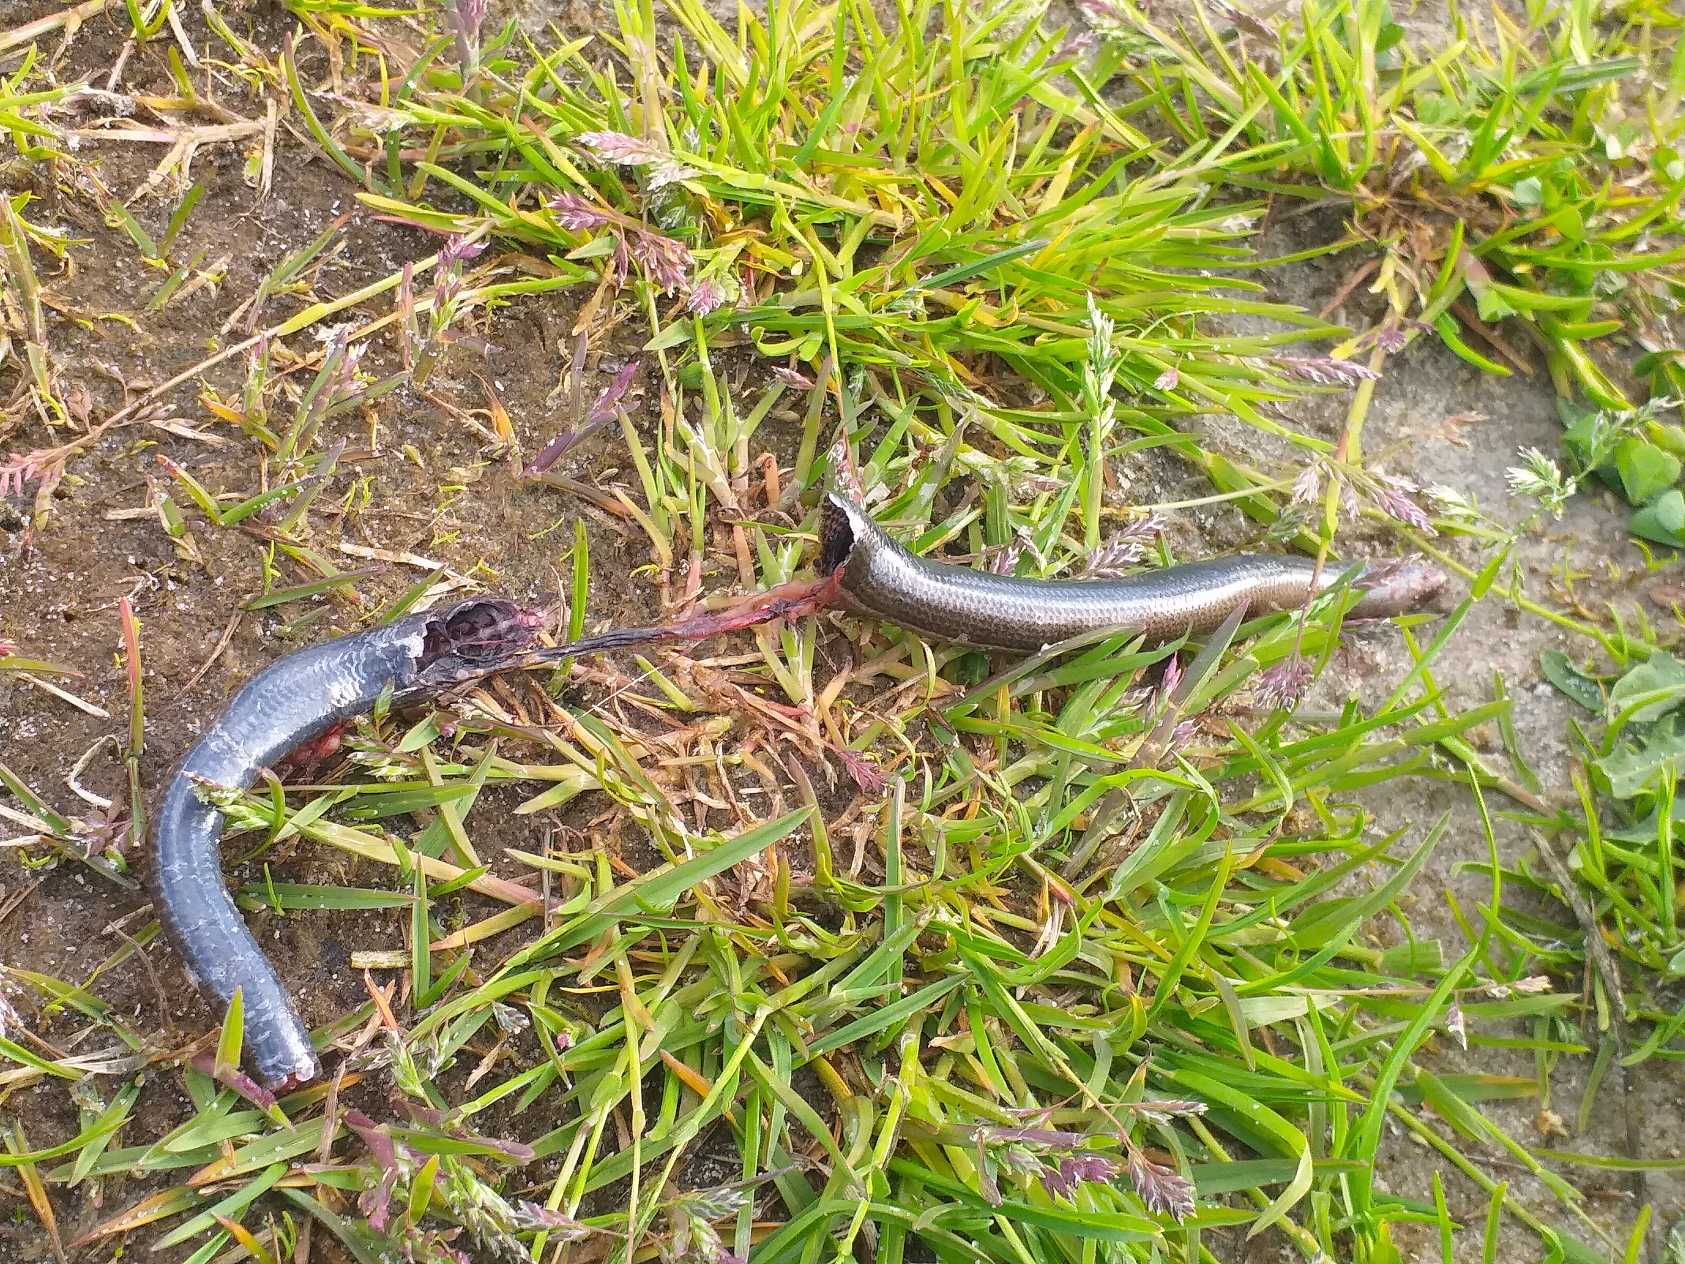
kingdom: Animalia
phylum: Chordata
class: Squamata
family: Anguidae
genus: Anguis
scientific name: Anguis fragilis
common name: Stålorm
